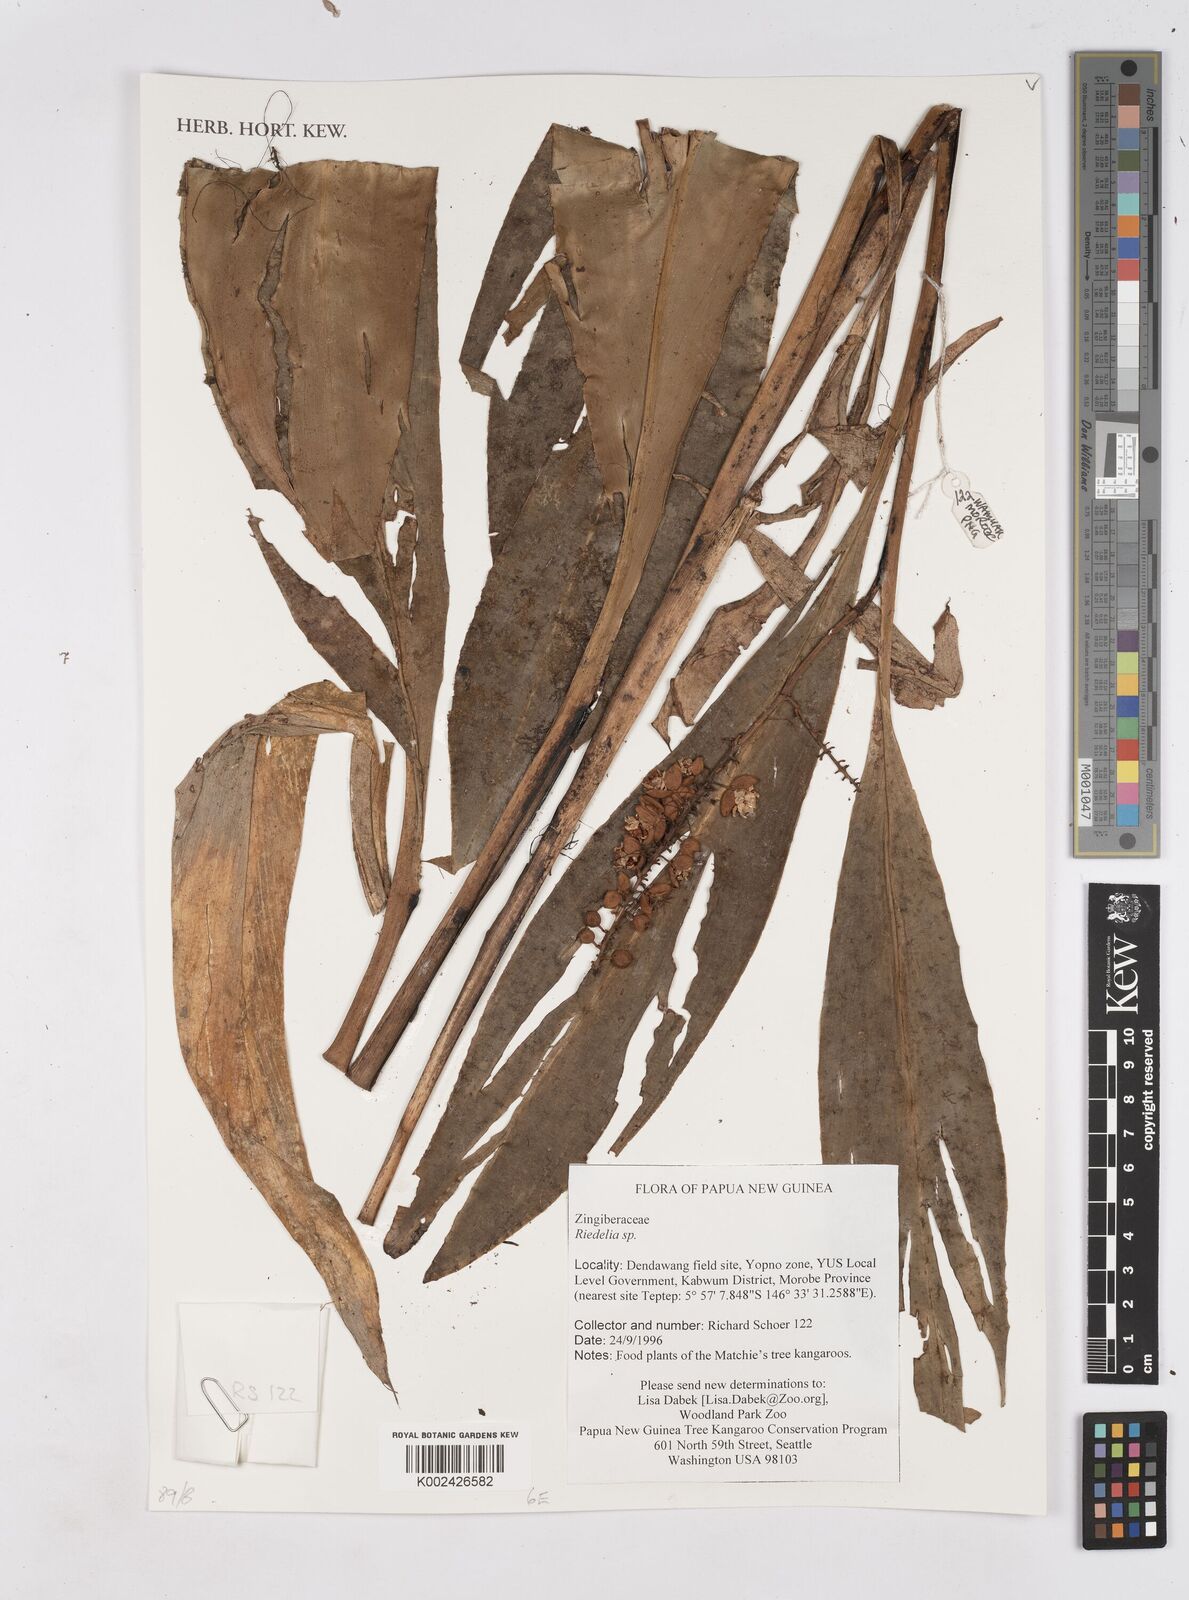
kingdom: Plantae
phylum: Tracheophyta
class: Liliopsida
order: Zingiberales
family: Zingiberaceae
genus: Riedelia
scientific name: Riedelia
